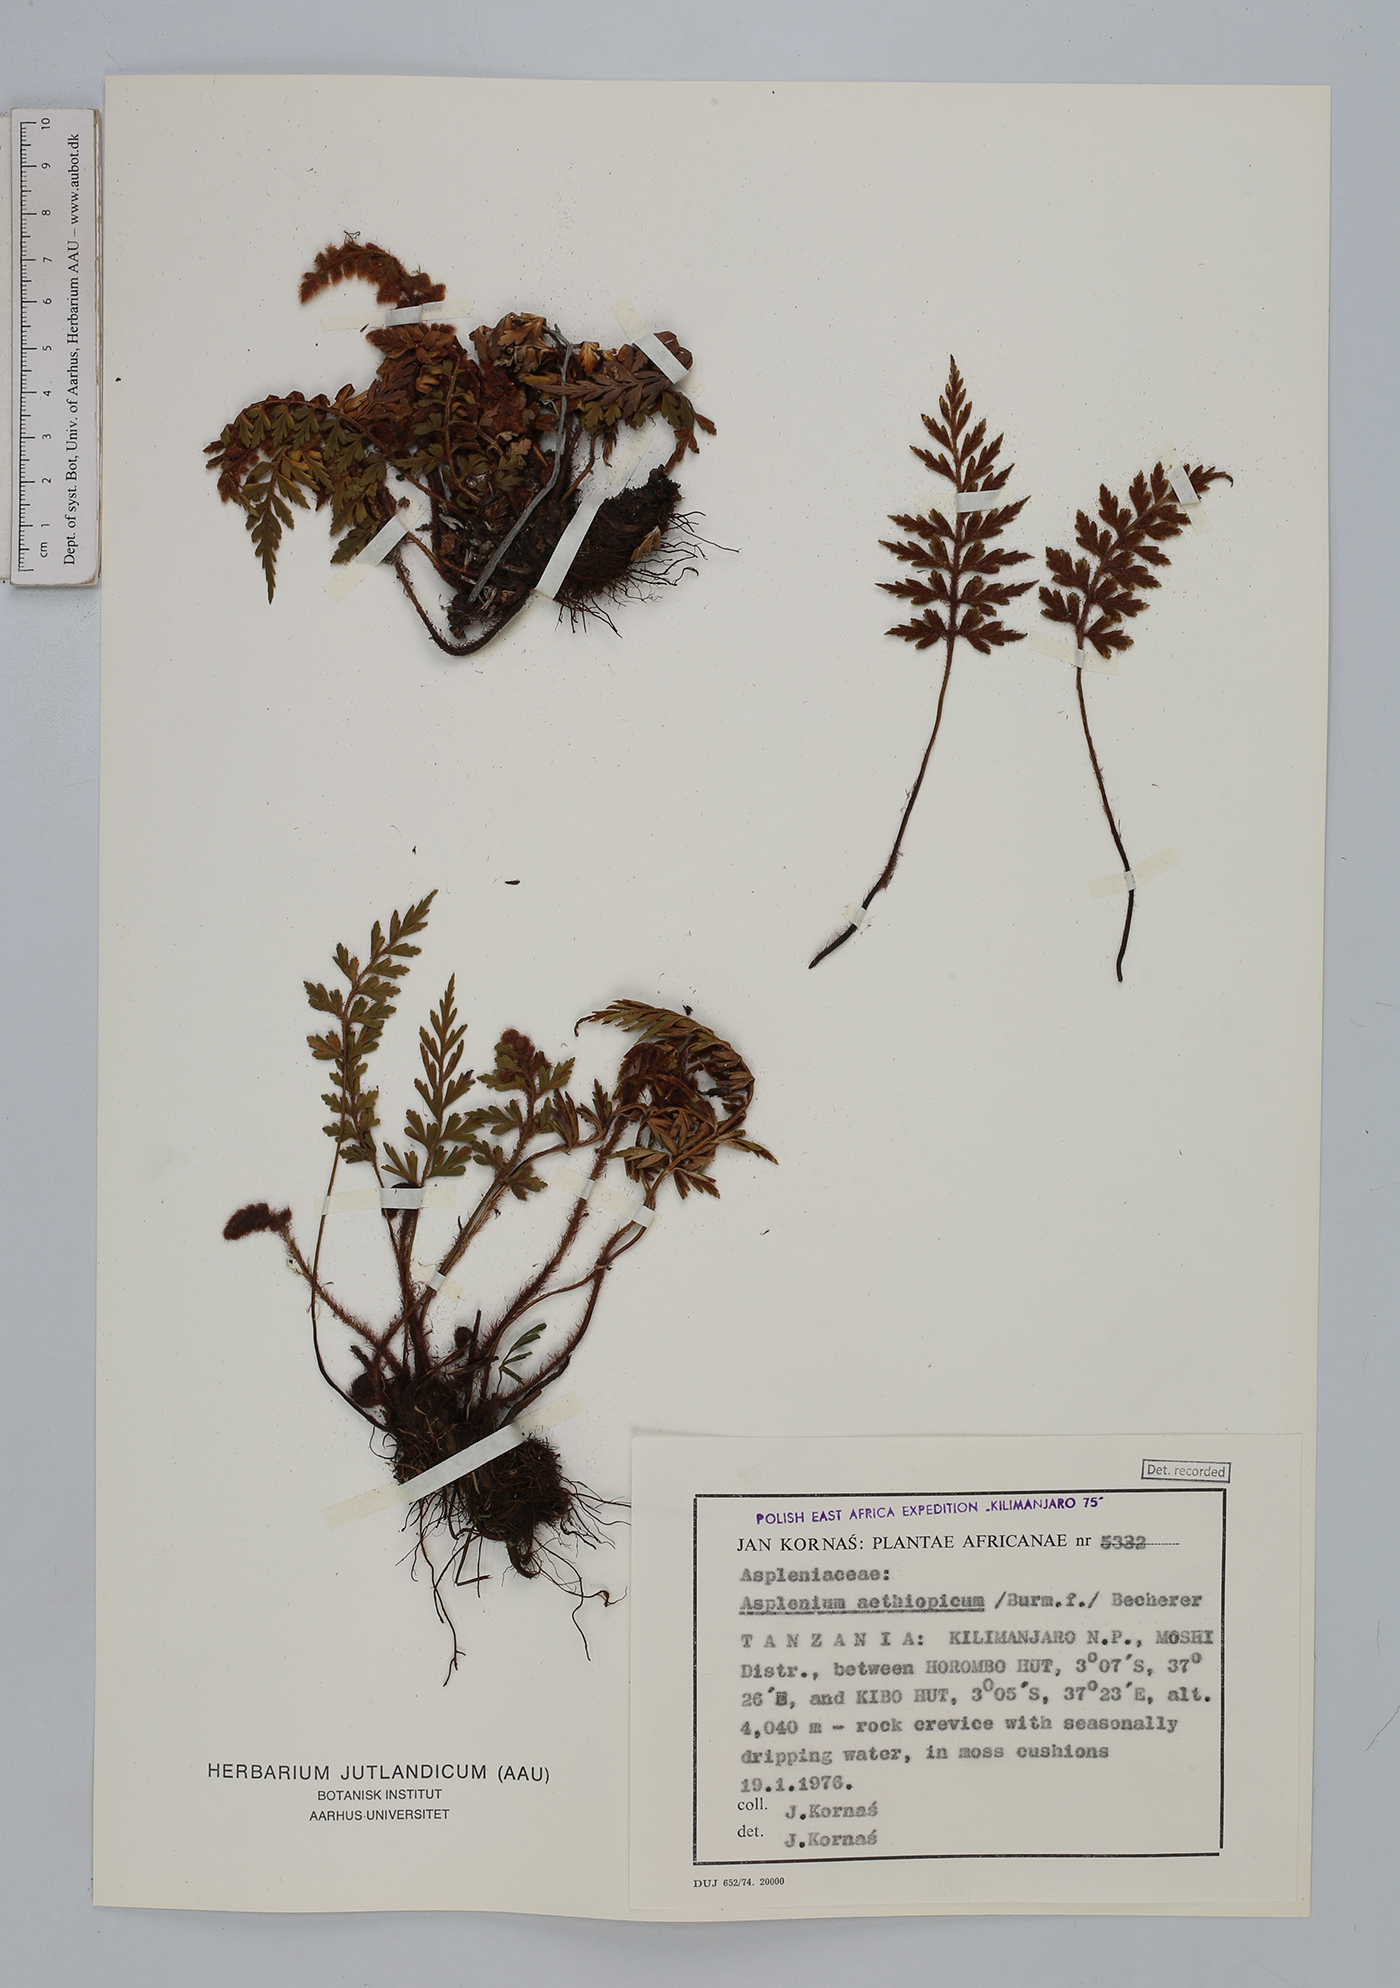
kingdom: Plantae
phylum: Tracheophyta
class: Polypodiopsida
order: Polypodiales
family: Aspleniaceae
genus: Asplenium
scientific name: Asplenium aethiopicum
